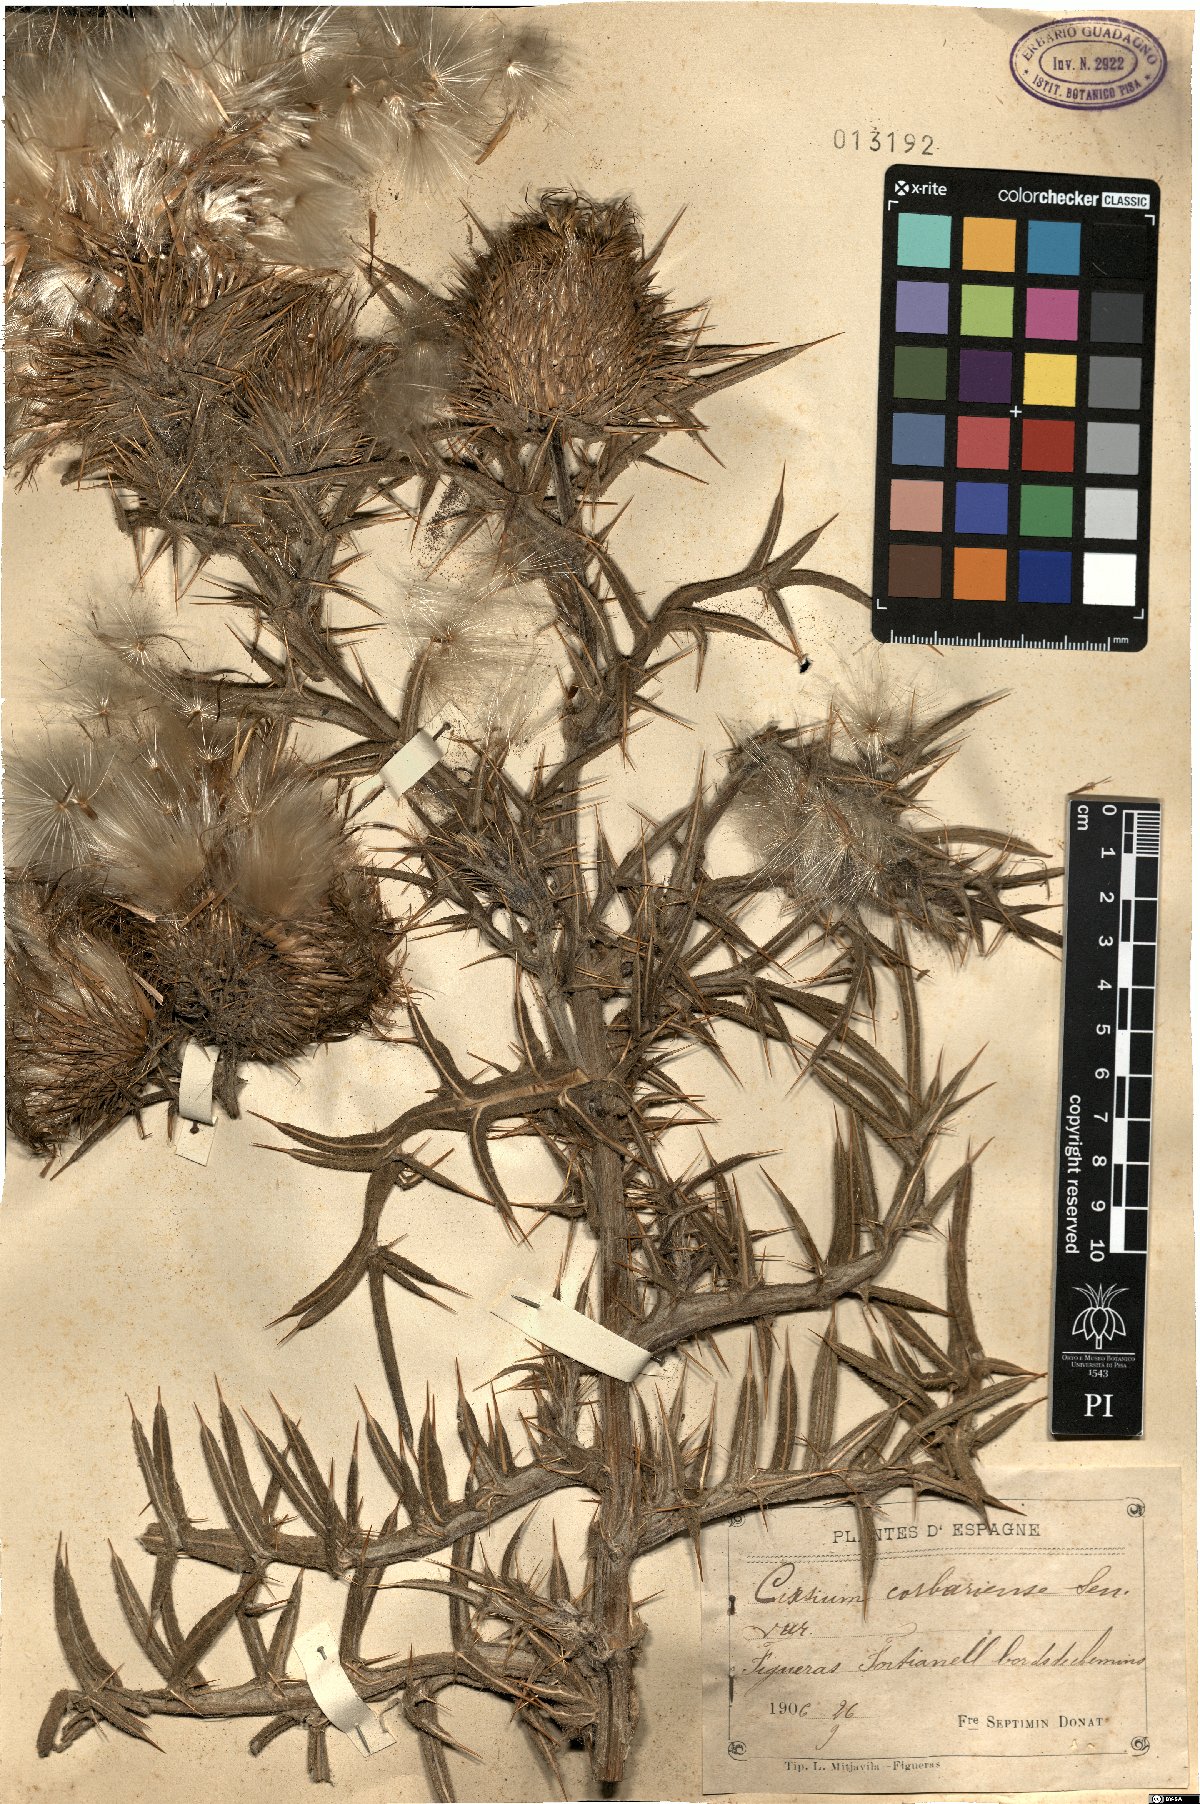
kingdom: Plantae
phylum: Tracheophyta
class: Magnoliopsida
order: Asterales
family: Asteraceae
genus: Lophiolepis
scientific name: Lophiolepis eriophora
